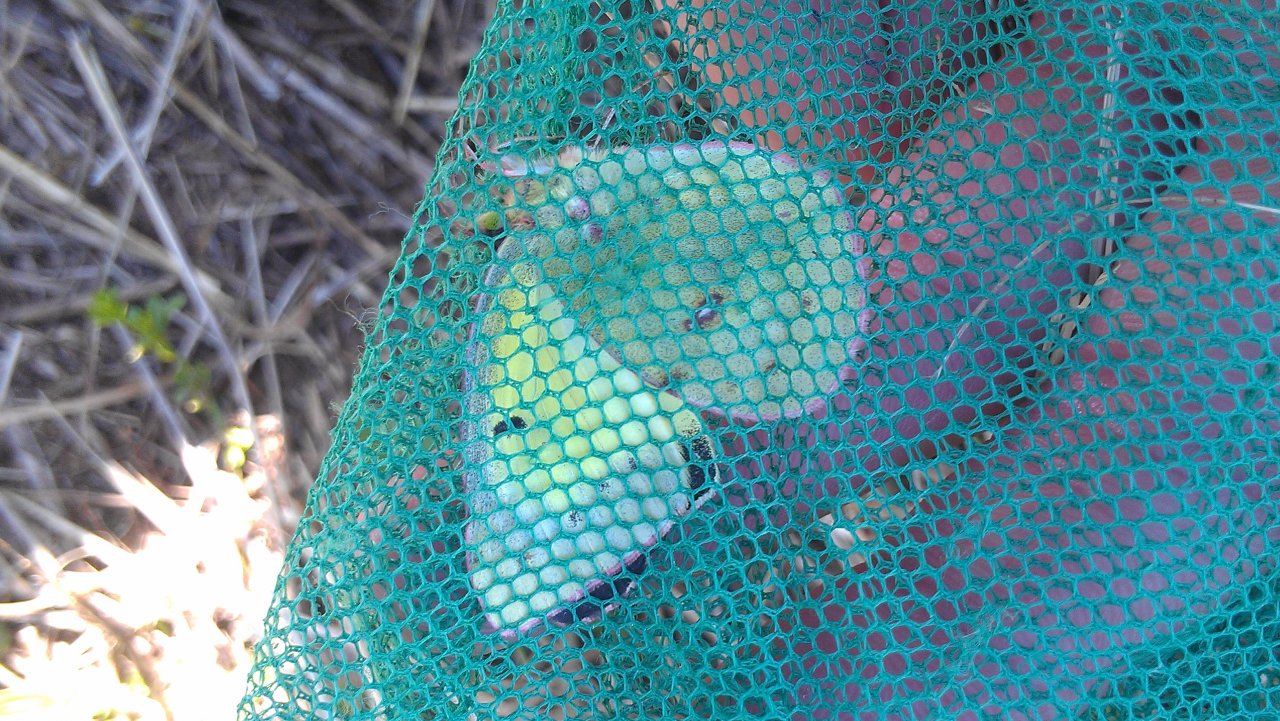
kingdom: Animalia
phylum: Arthropoda
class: Insecta
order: Lepidoptera
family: Pieridae
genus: Colias
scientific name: Colias philodice
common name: Clouded Sulphur
